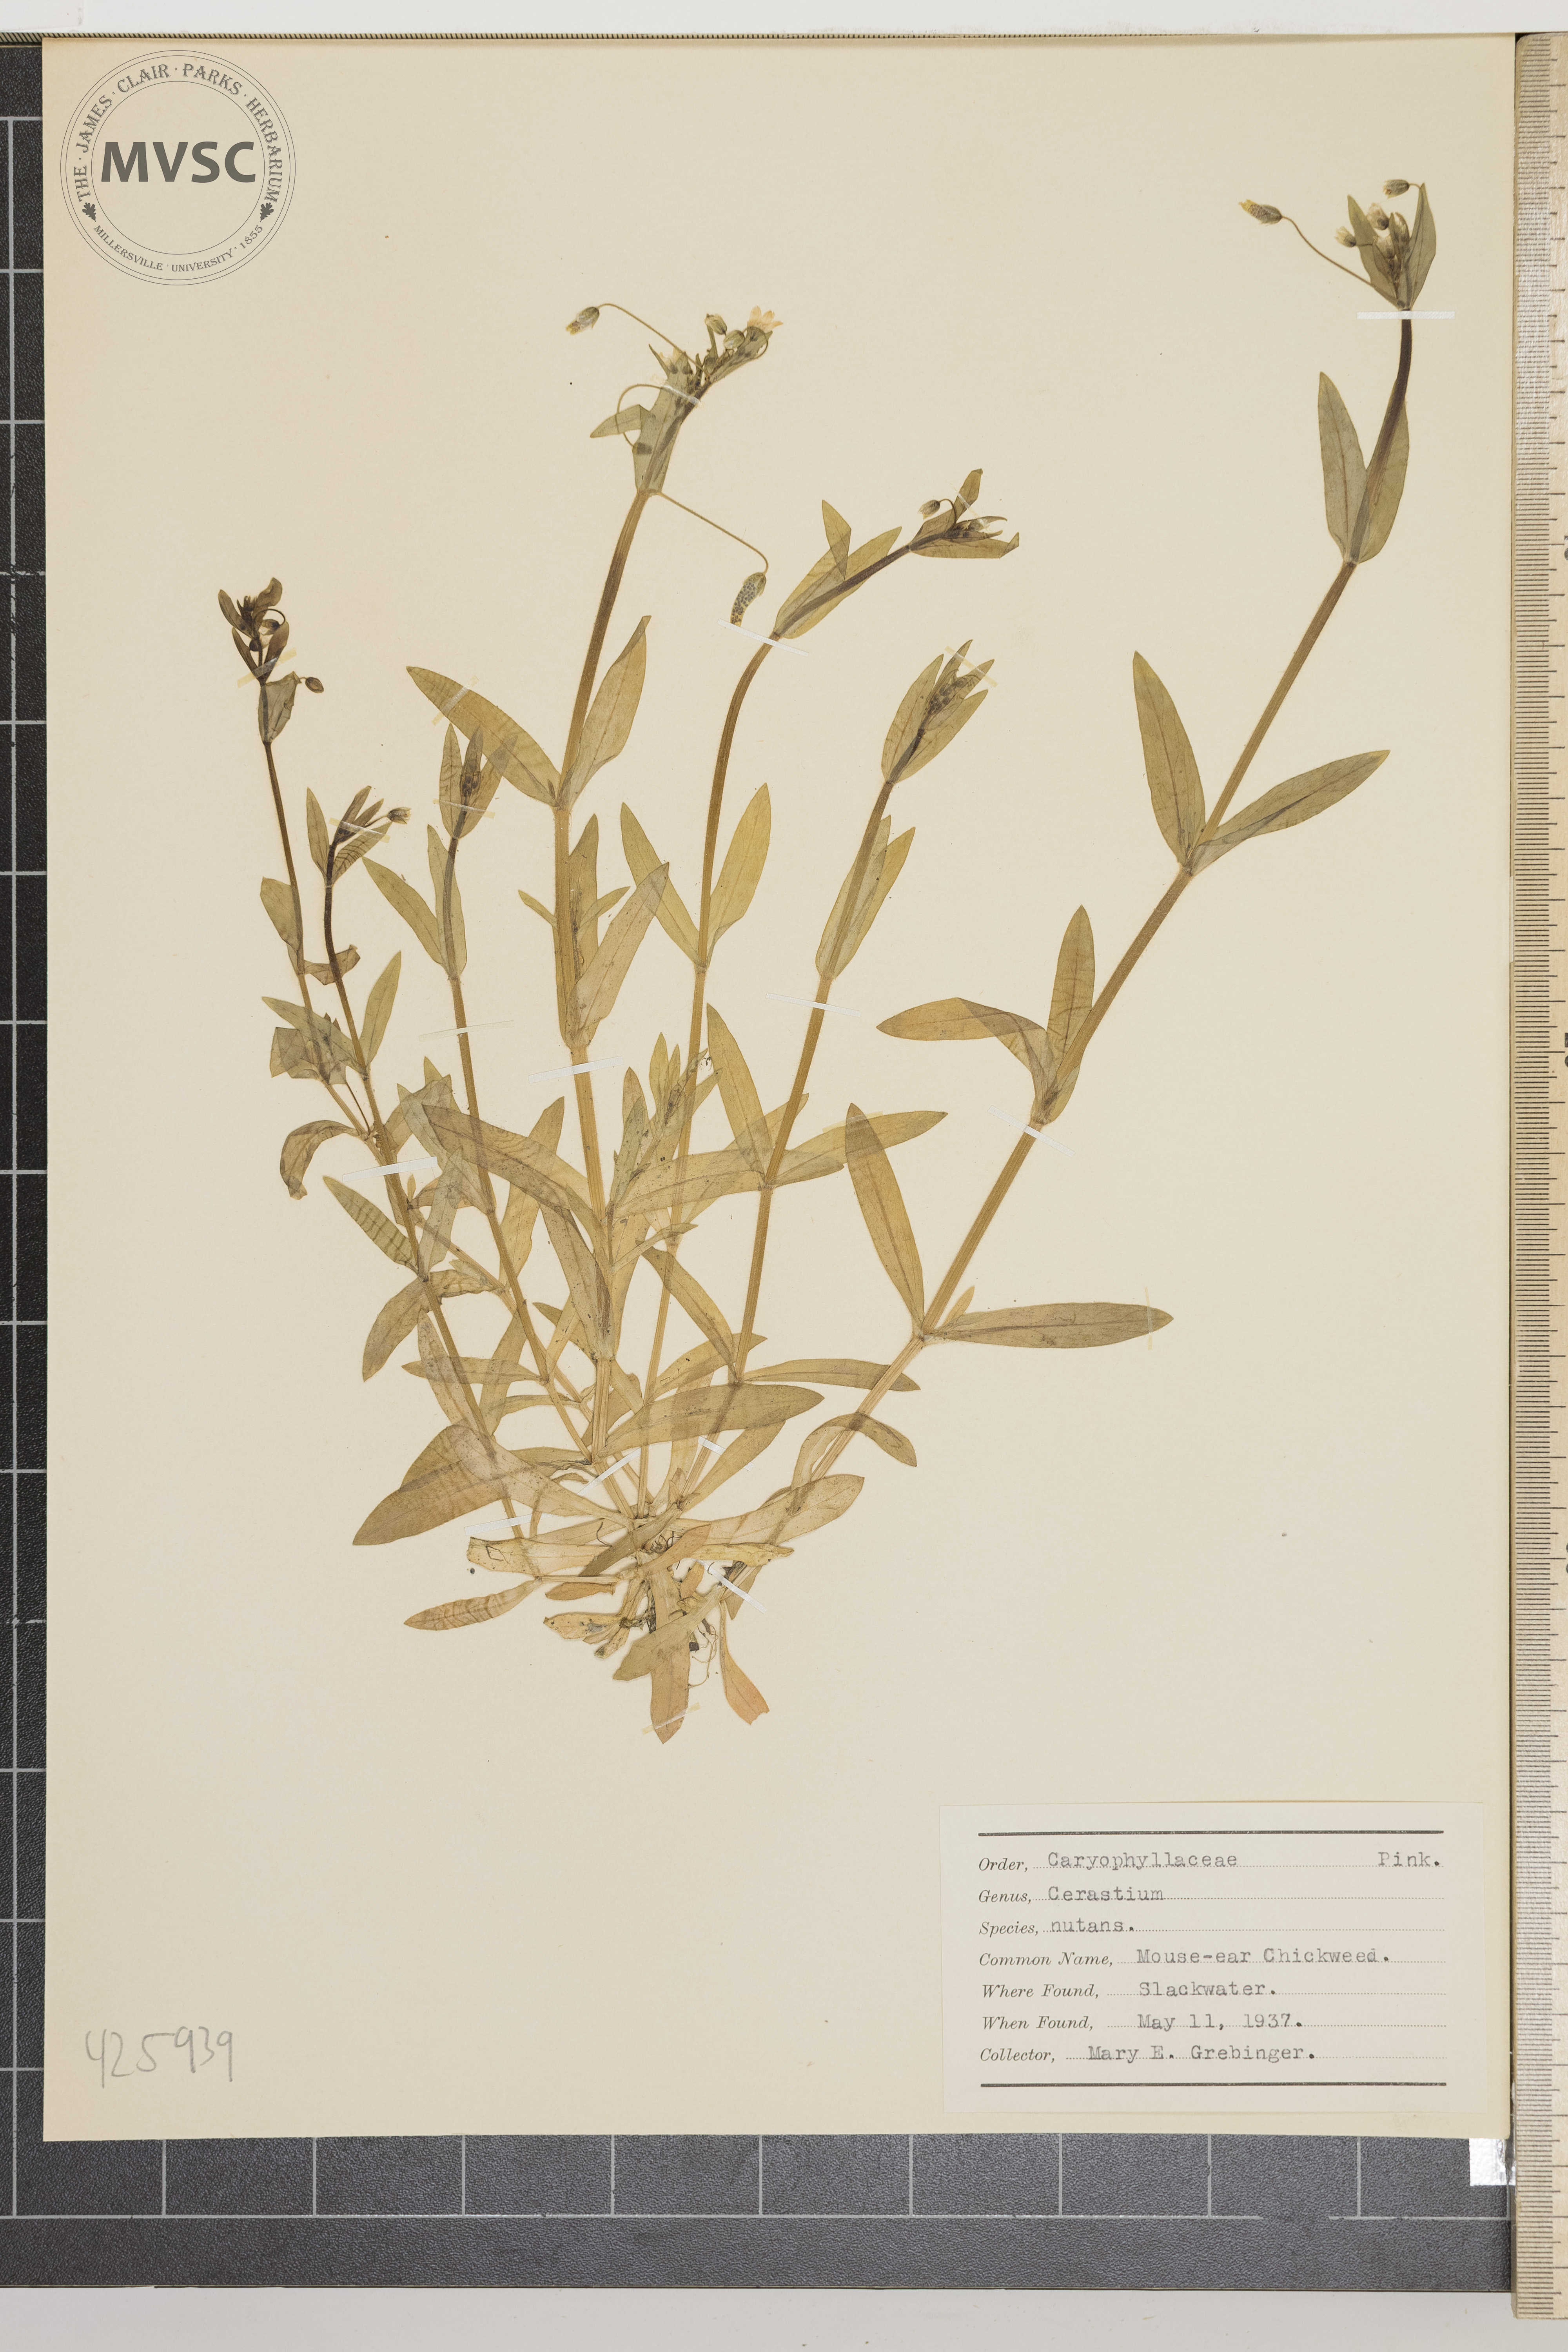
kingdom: Plantae
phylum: Tracheophyta
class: Magnoliopsida
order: Caryophyllales
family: Caryophyllaceae
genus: Cerastium
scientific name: Cerastium nutans
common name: Mouse-ear chickweed
